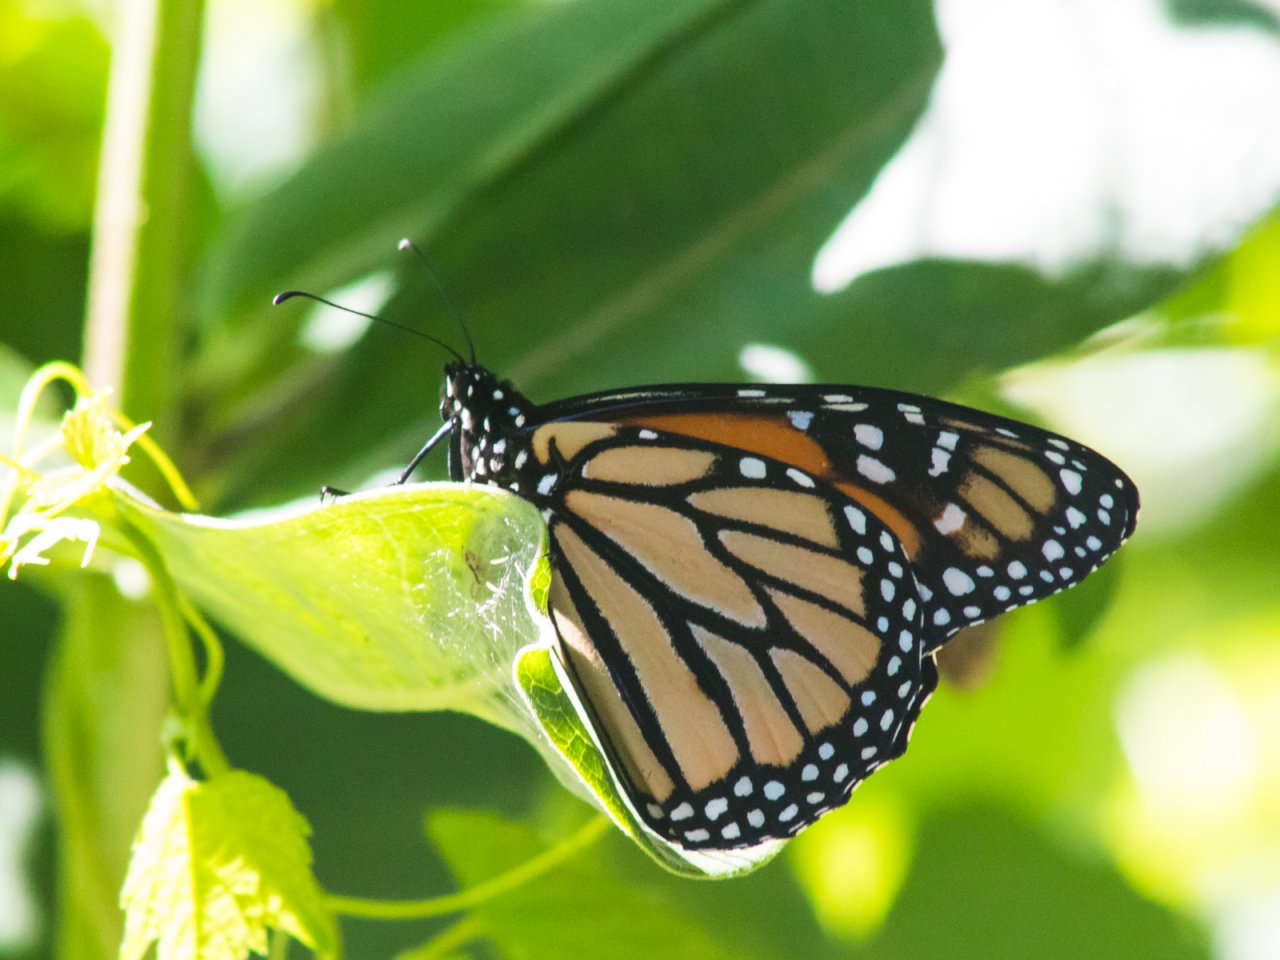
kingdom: Animalia
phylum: Arthropoda
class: Insecta
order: Lepidoptera
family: Nymphalidae
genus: Danaus
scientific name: Danaus plexippus
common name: Monarch
